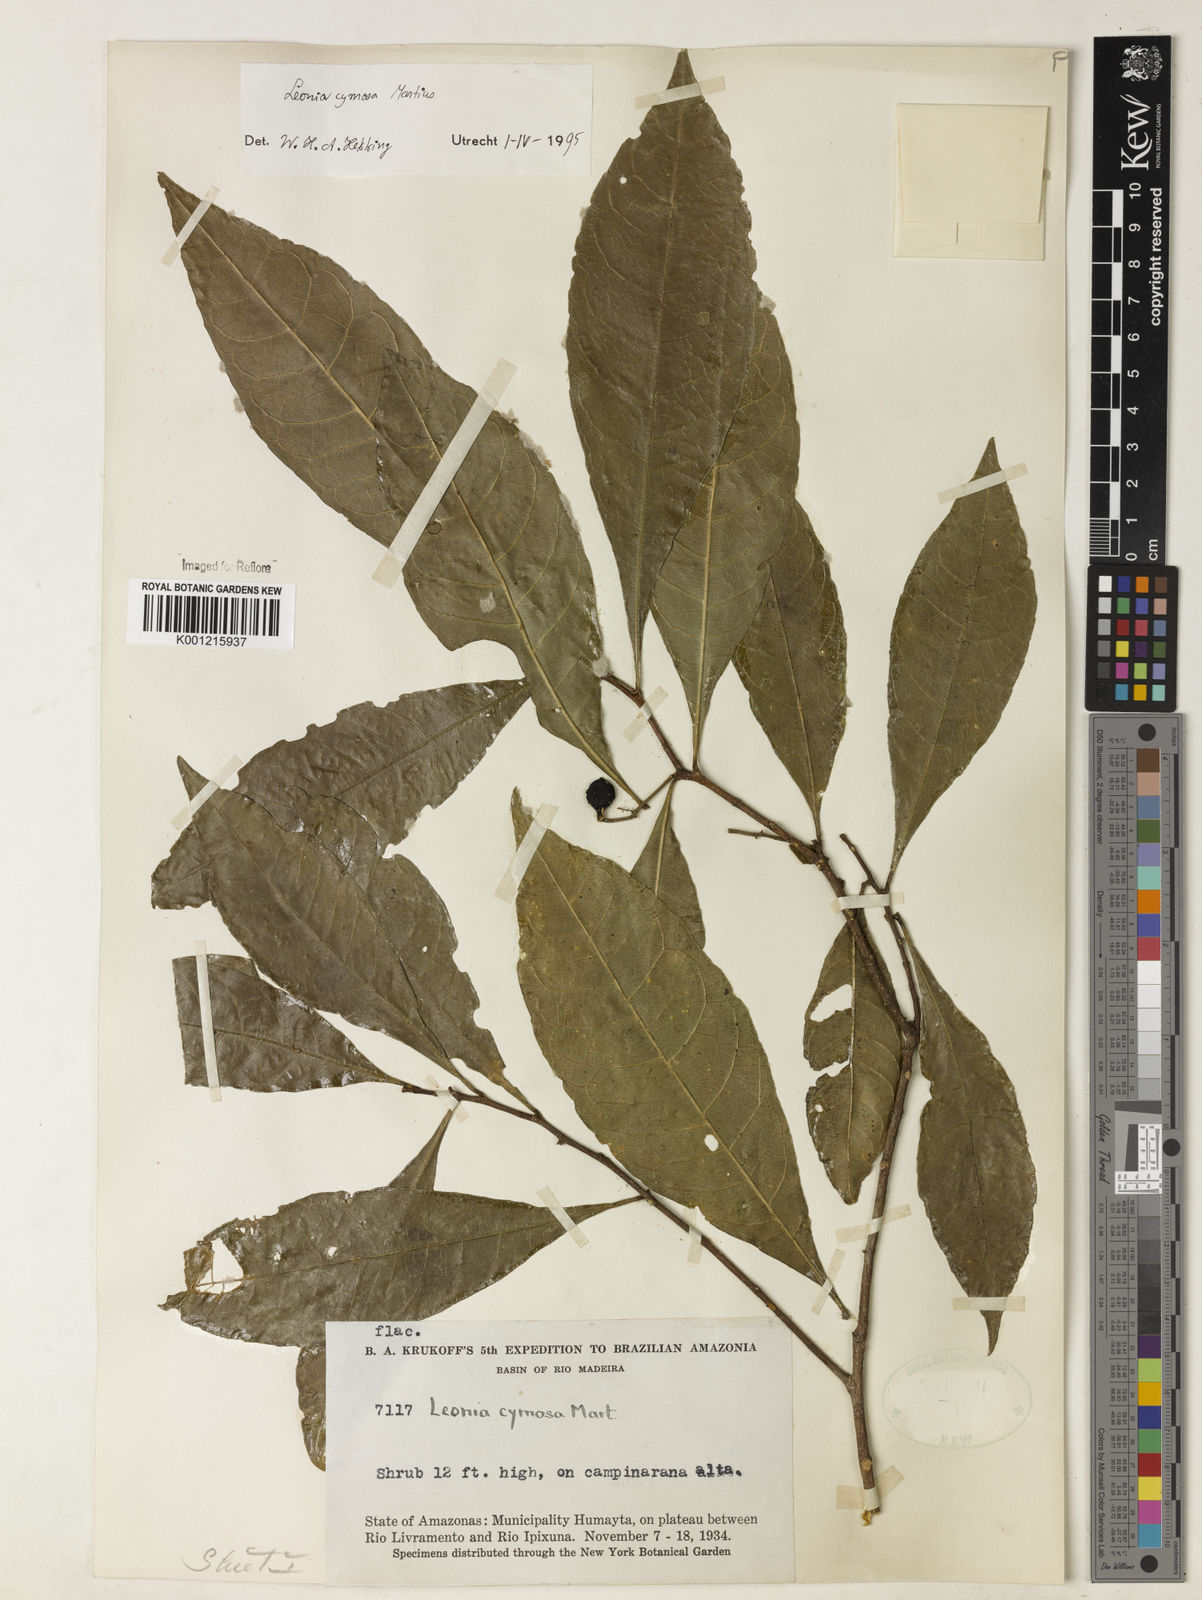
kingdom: Plantae
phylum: Tracheophyta
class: Magnoliopsida
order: Malpighiales
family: Violaceae
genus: Leonia
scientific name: Leonia cymosa
